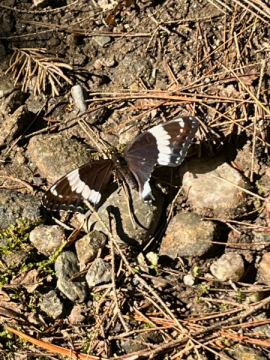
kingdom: Animalia
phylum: Arthropoda
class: Insecta
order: Lepidoptera
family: Nymphalidae
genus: Limenitis
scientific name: Limenitis arthemis
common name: Red-spotted Admiral
